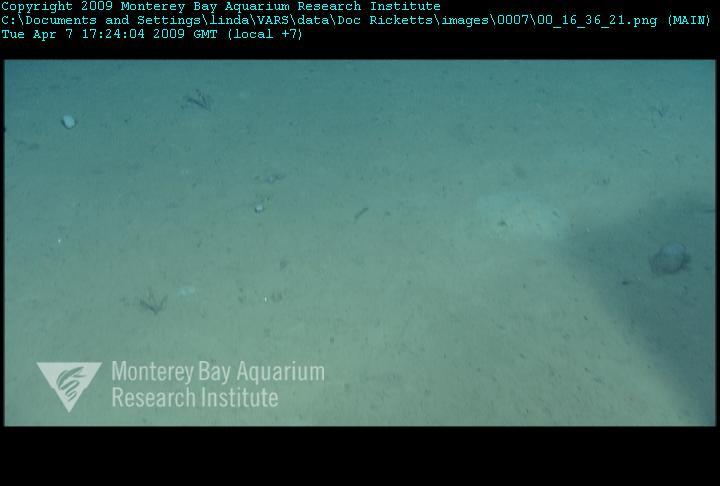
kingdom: Animalia
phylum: Porifera
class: Hexactinellida
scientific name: Hexactinellida
